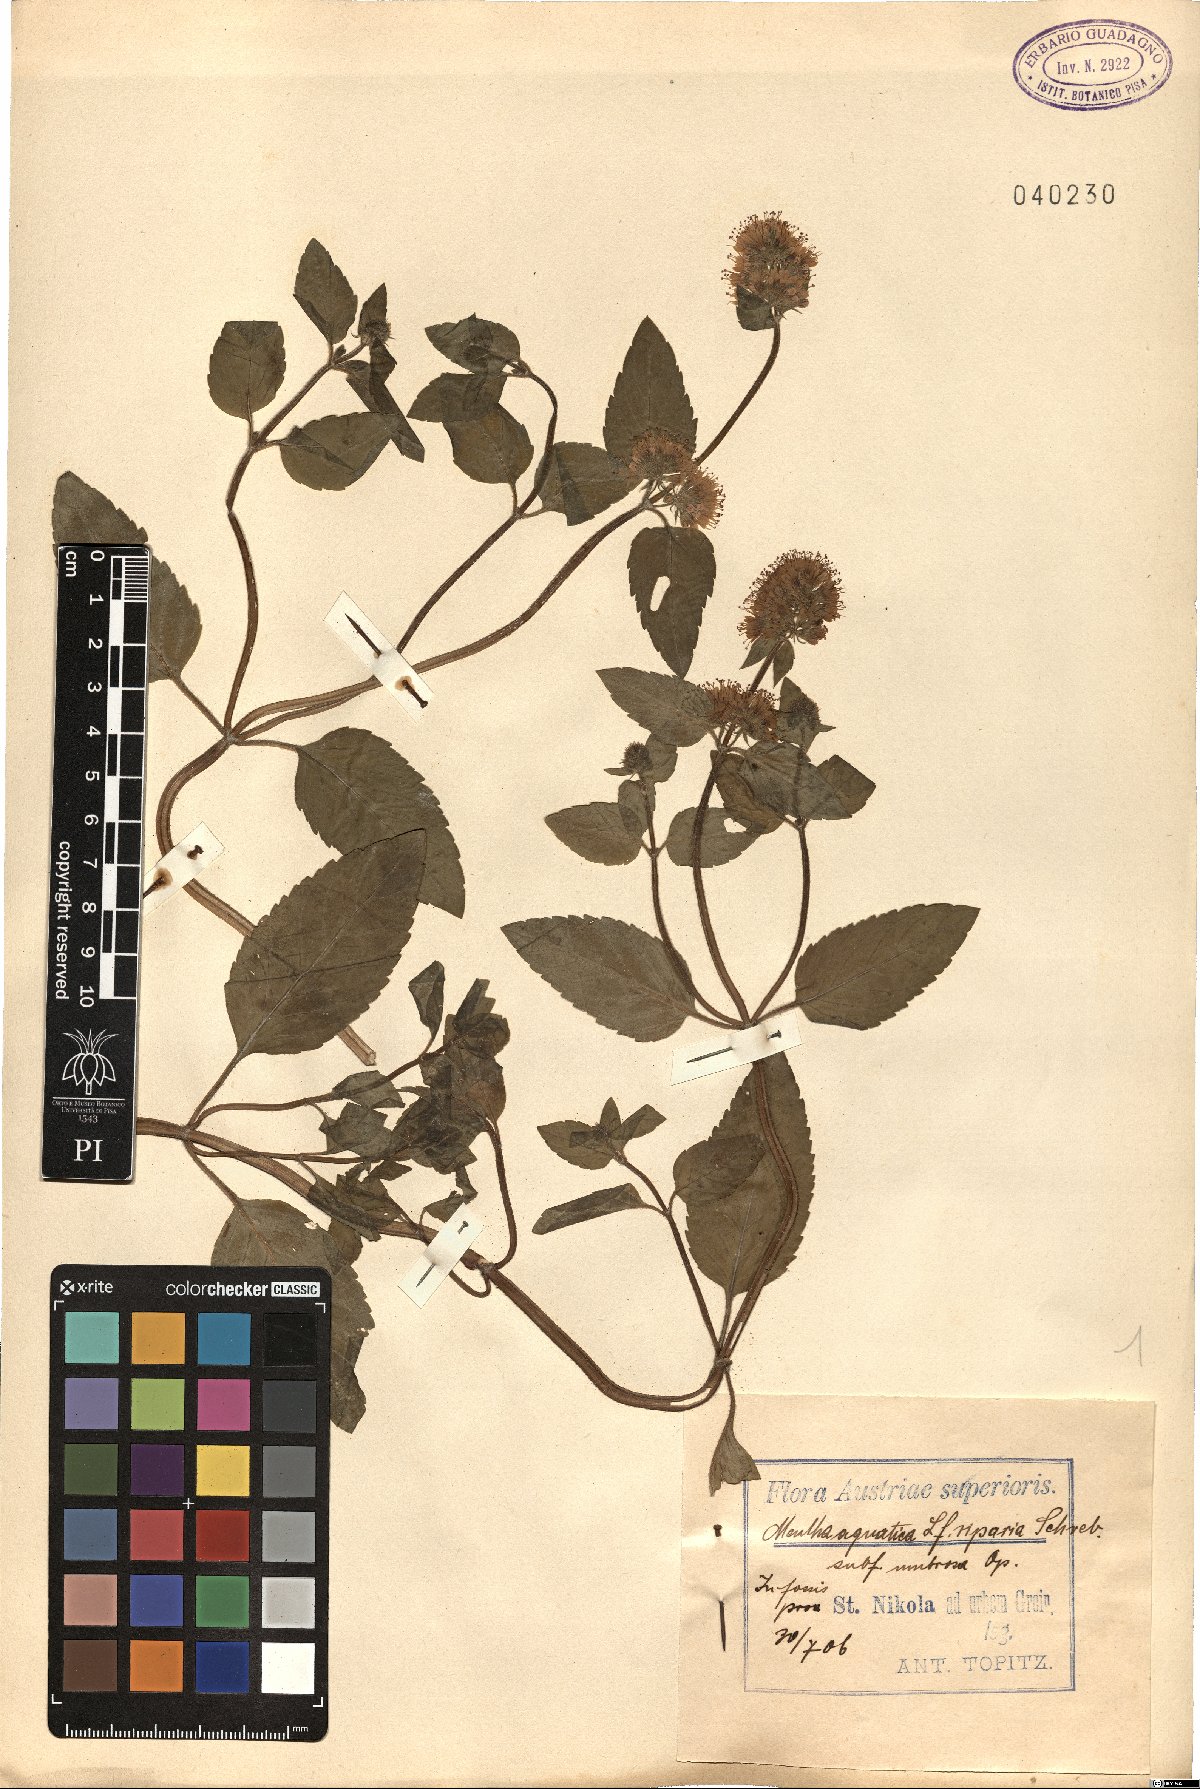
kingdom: Plantae
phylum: Tracheophyta
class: Magnoliopsida
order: Lamiales
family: Lamiaceae
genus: Mentha
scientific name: Mentha aquatica
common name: Water mint
